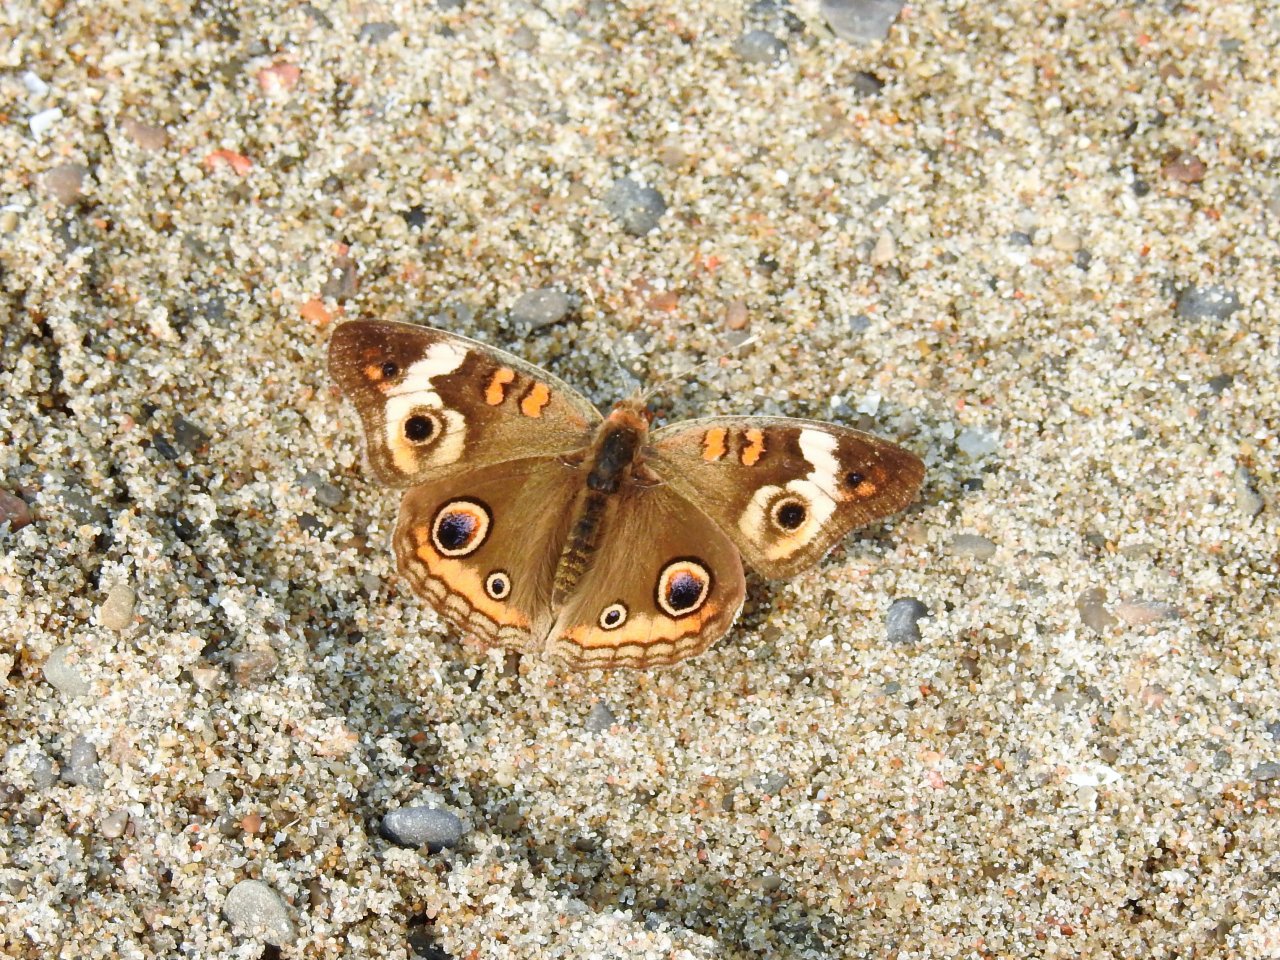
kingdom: Animalia
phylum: Arthropoda
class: Insecta
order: Lepidoptera
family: Nymphalidae
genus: Junonia
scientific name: Junonia coenia
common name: Common Buckeye
